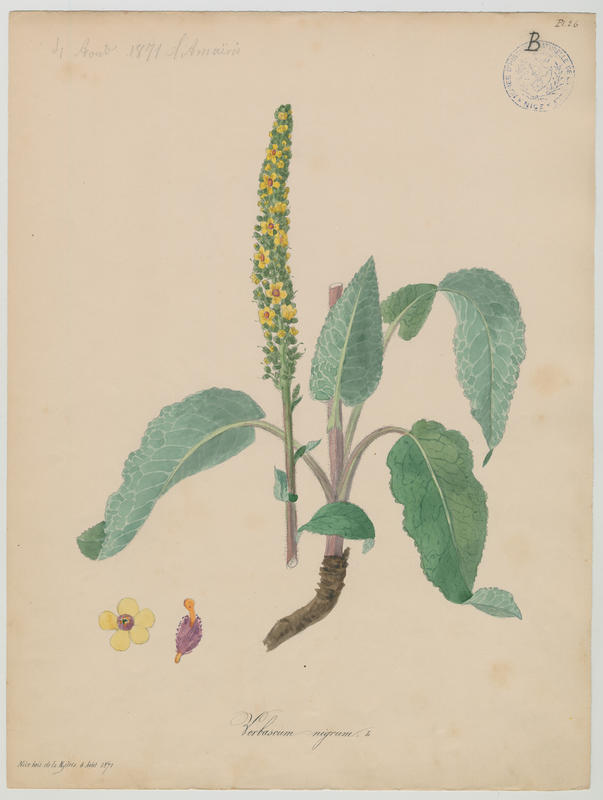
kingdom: Plantae
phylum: Tracheophyta
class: Magnoliopsida
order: Lamiales
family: Scrophulariaceae
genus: Verbascum
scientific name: Verbascum nigrum
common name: Dark mullein
